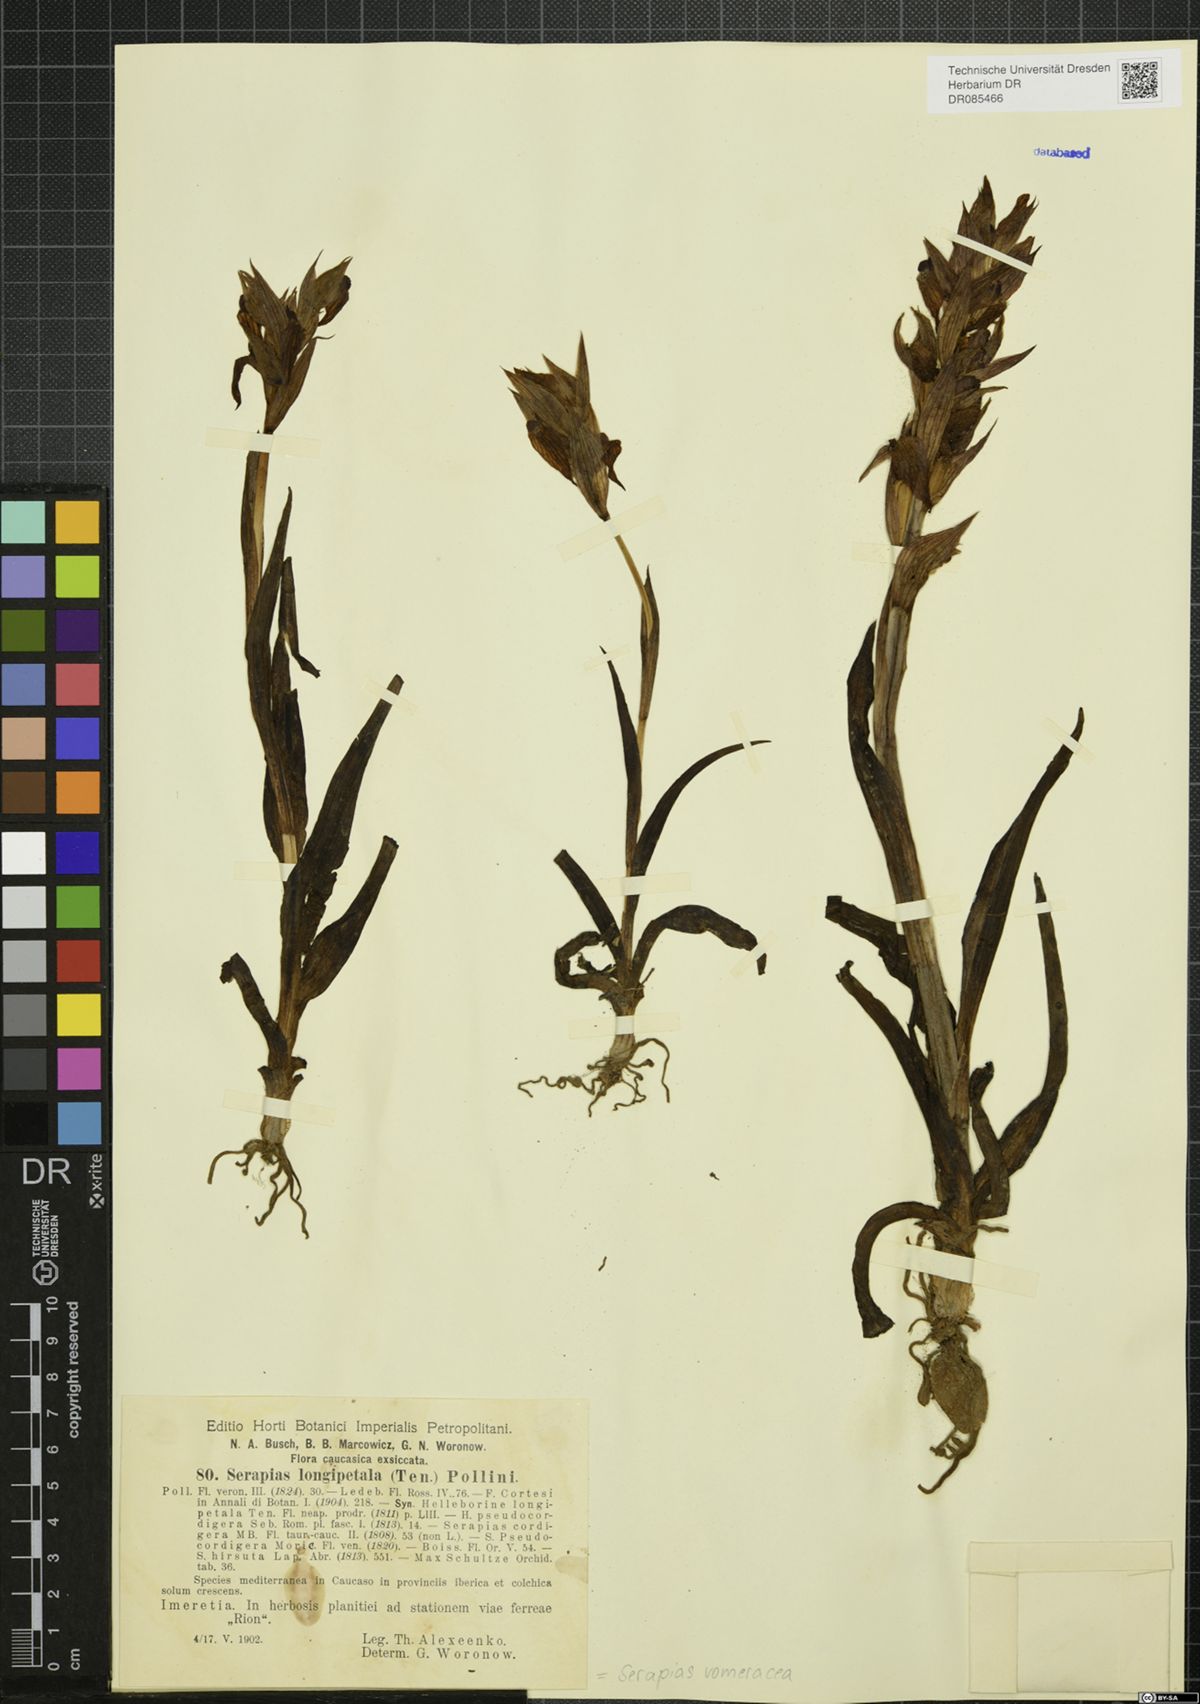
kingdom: Plantae
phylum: Tracheophyta
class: Liliopsida
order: Asparagales
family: Orchidaceae
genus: Serapias
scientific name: Serapias vomeracea
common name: Long-lipped tongue-orchid
